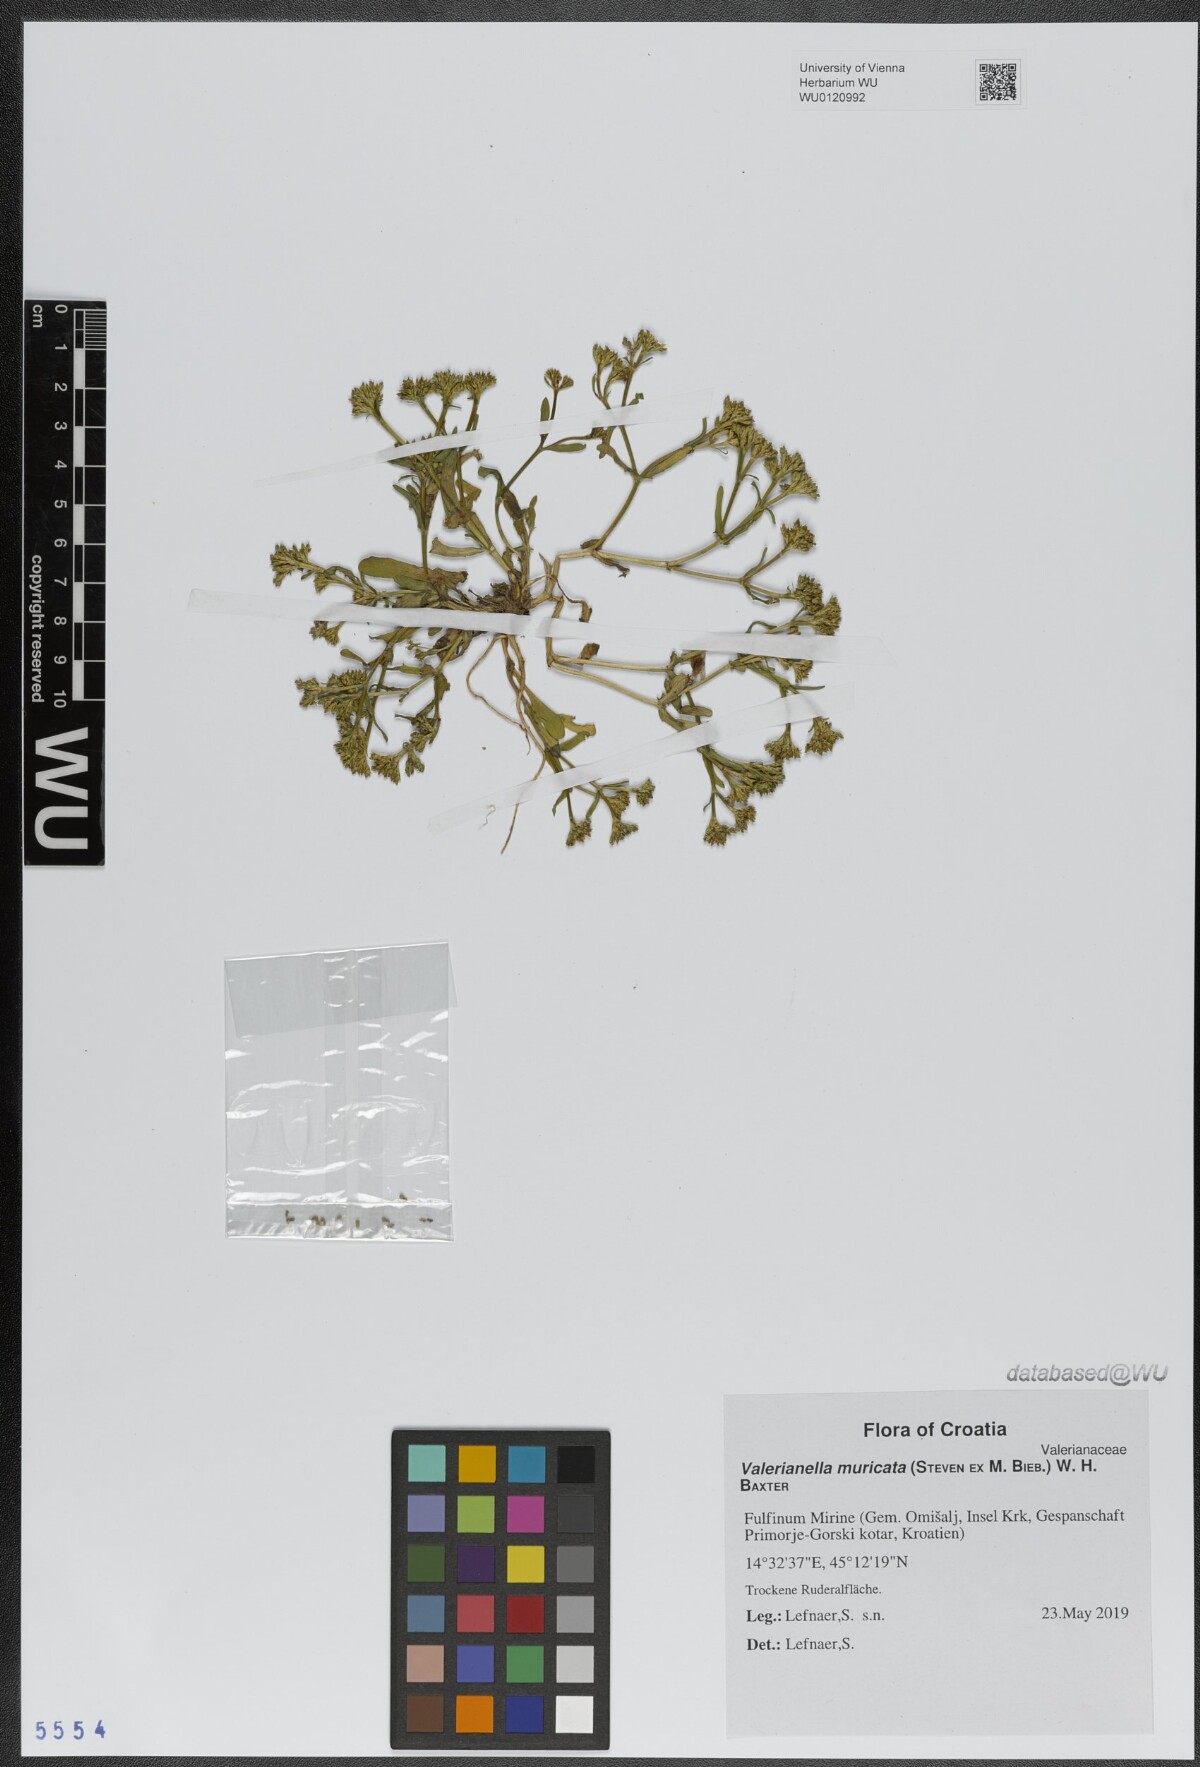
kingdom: Plantae
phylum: Tracheophyta
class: Magnoliopsida
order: Dipsacales
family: Caprifoliaceae
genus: Valerianella
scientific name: Valerianella eriocarpa
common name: Hairy-fruited cornsalad
